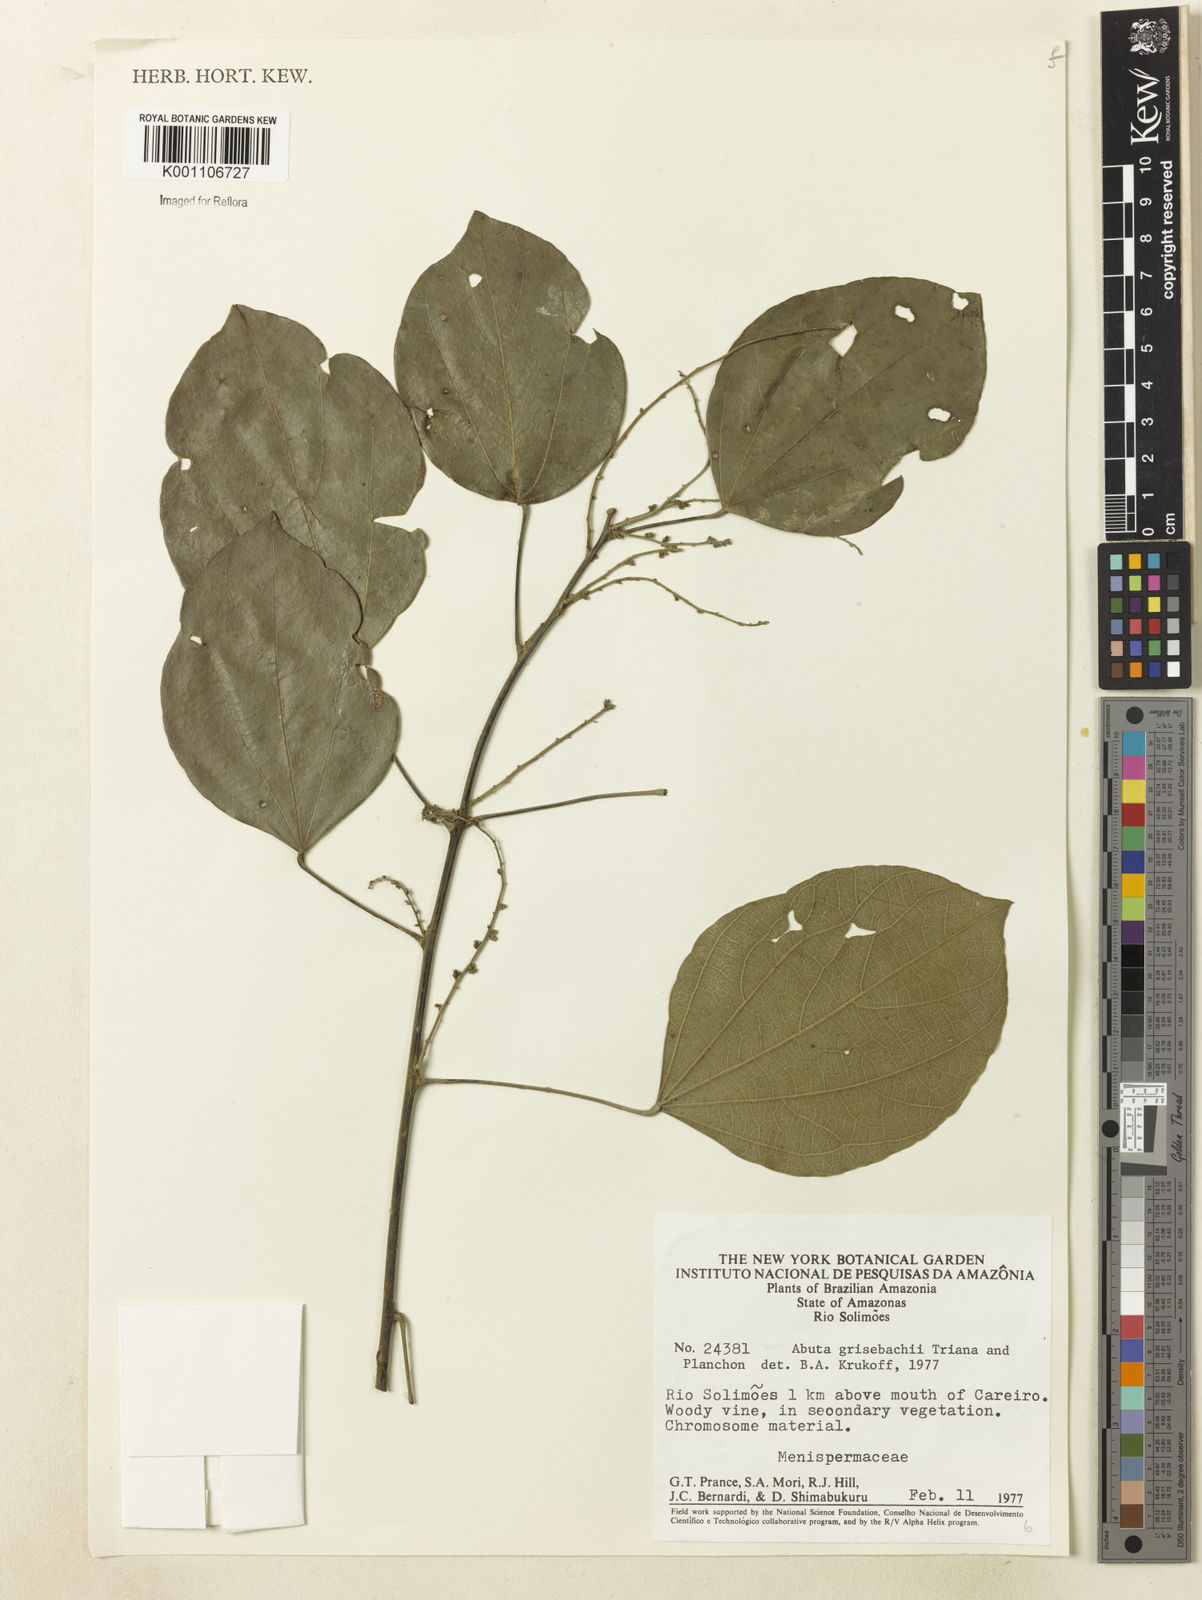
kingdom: Plantae
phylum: Tracheophyta
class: Magnoliopsida
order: Ranunculales
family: Menispermaceae
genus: Abuta
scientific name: Abuta grisebachii
